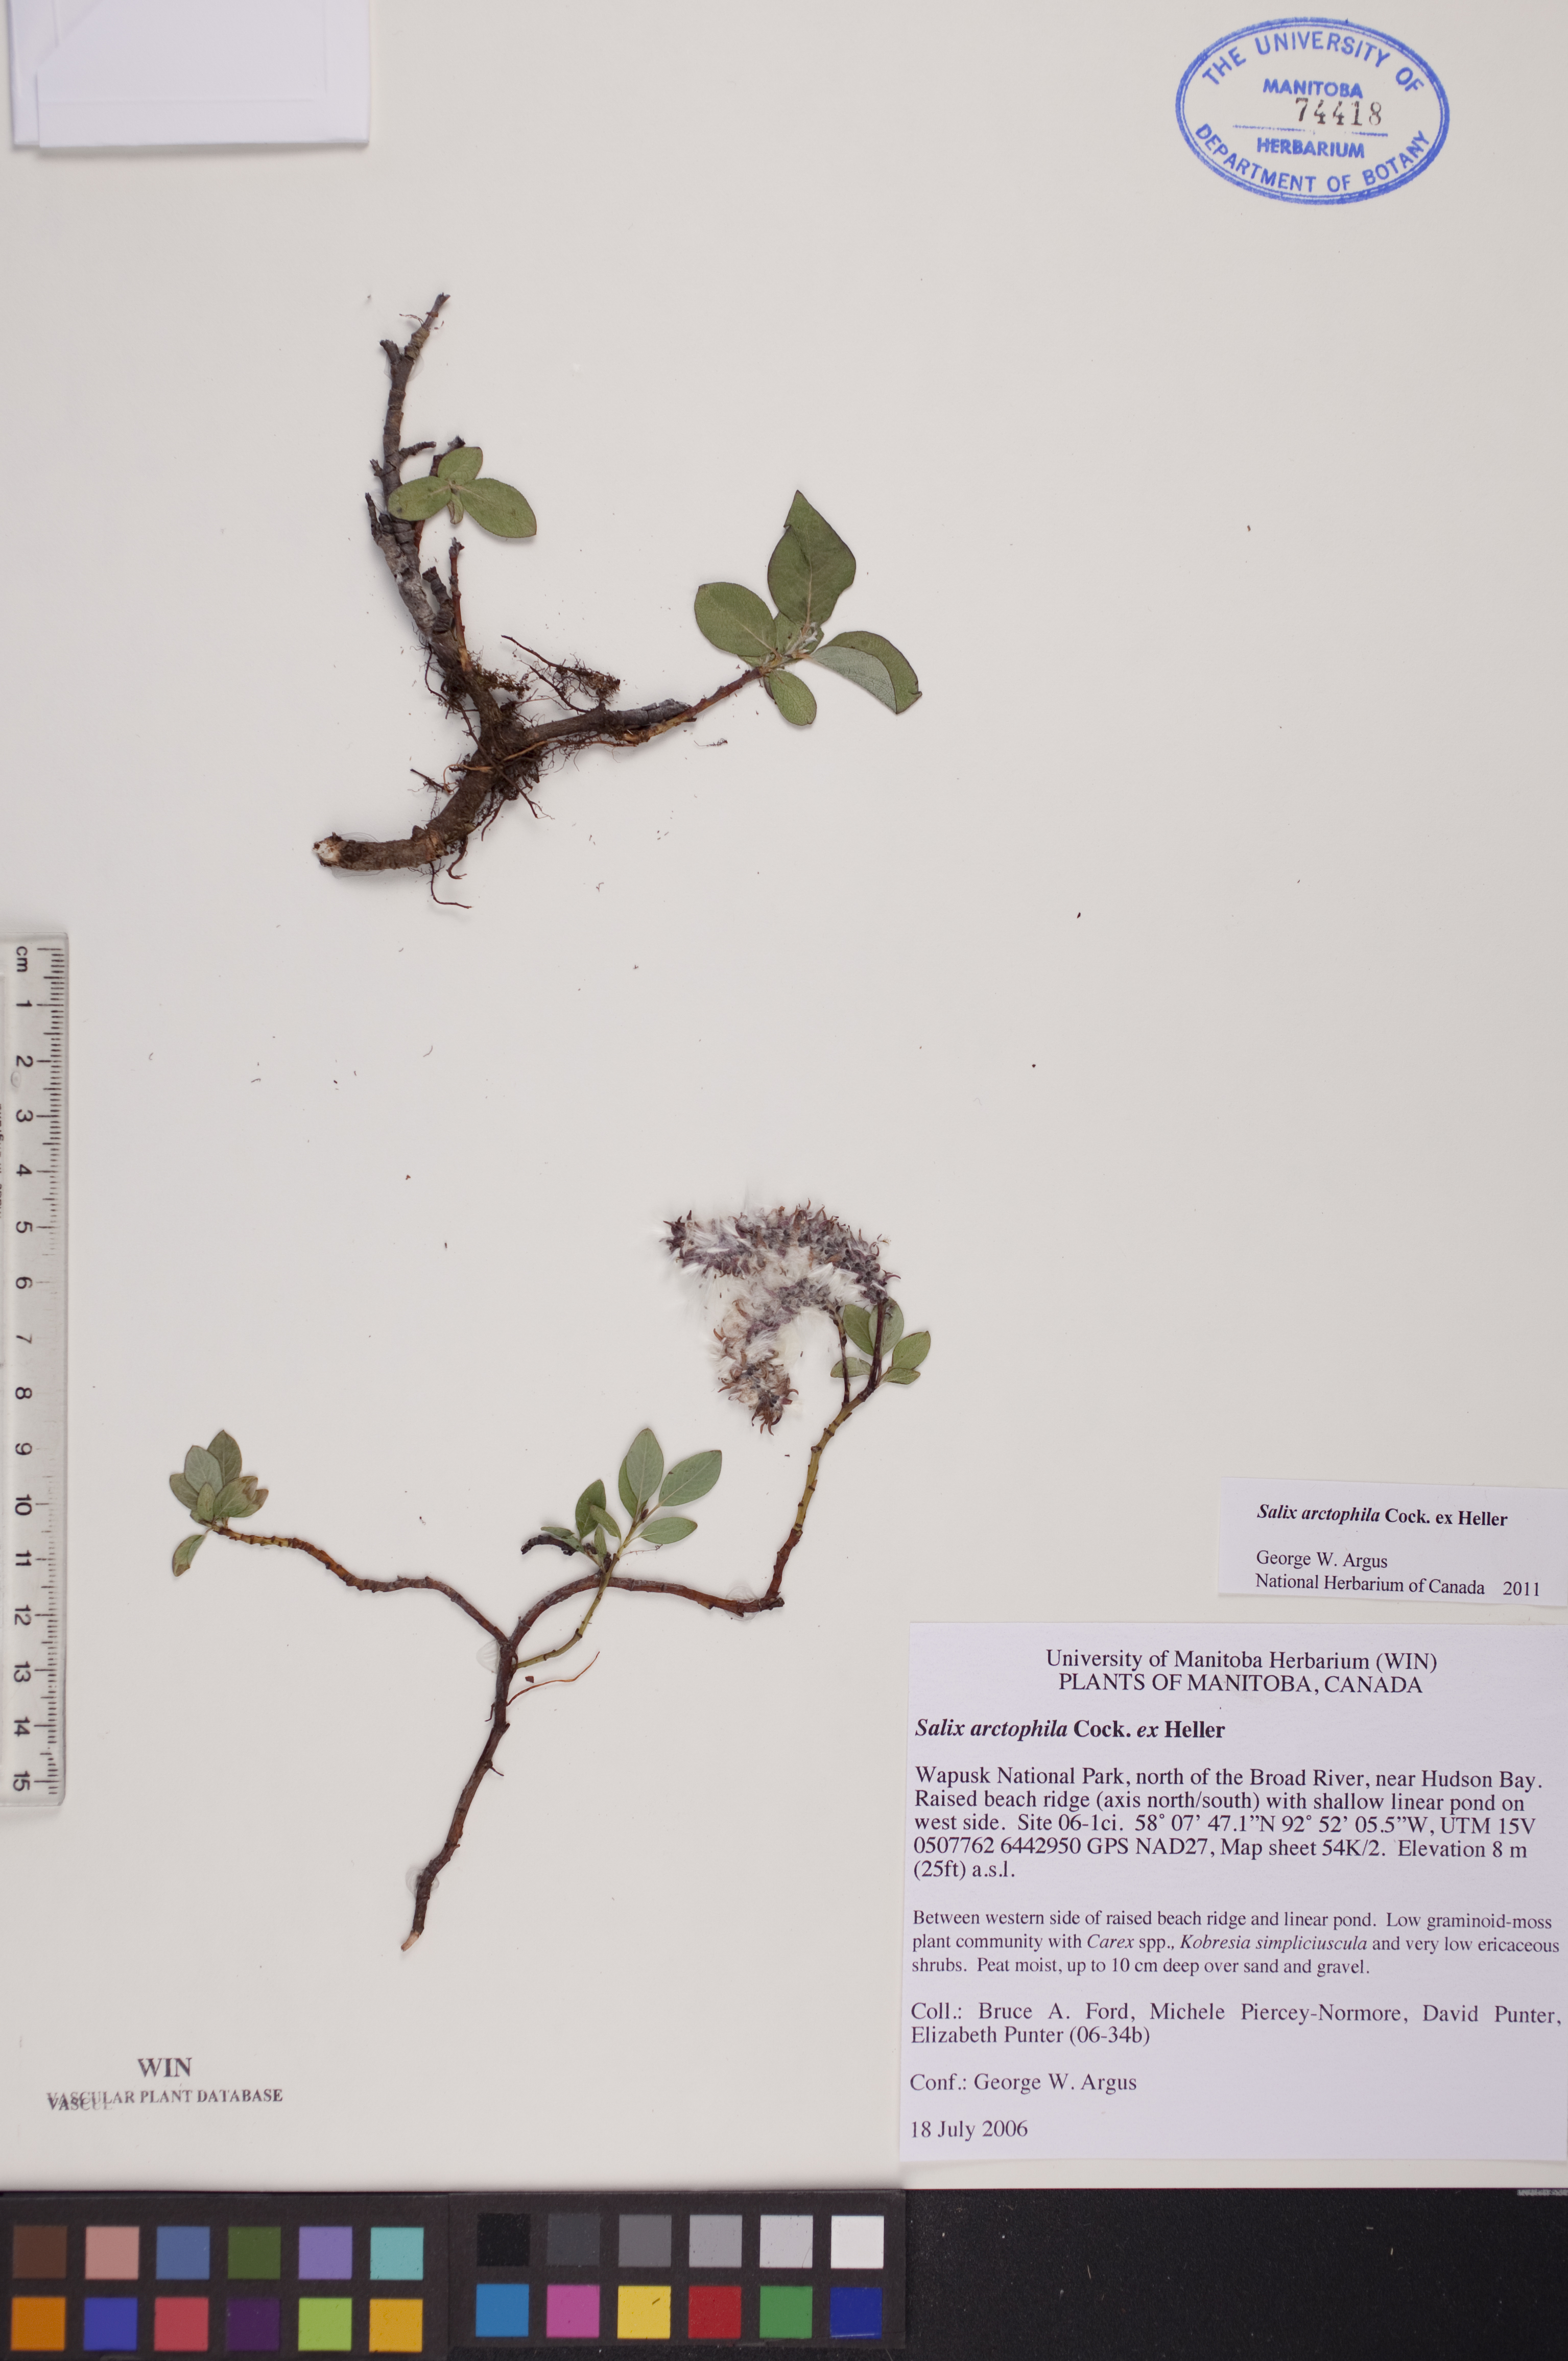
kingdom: Plantae
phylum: Tracheophyta
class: Magnoliopsida
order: Malpighiales
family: Salicaceae
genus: Salix
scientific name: Salix arctophila
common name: Greenland willow
